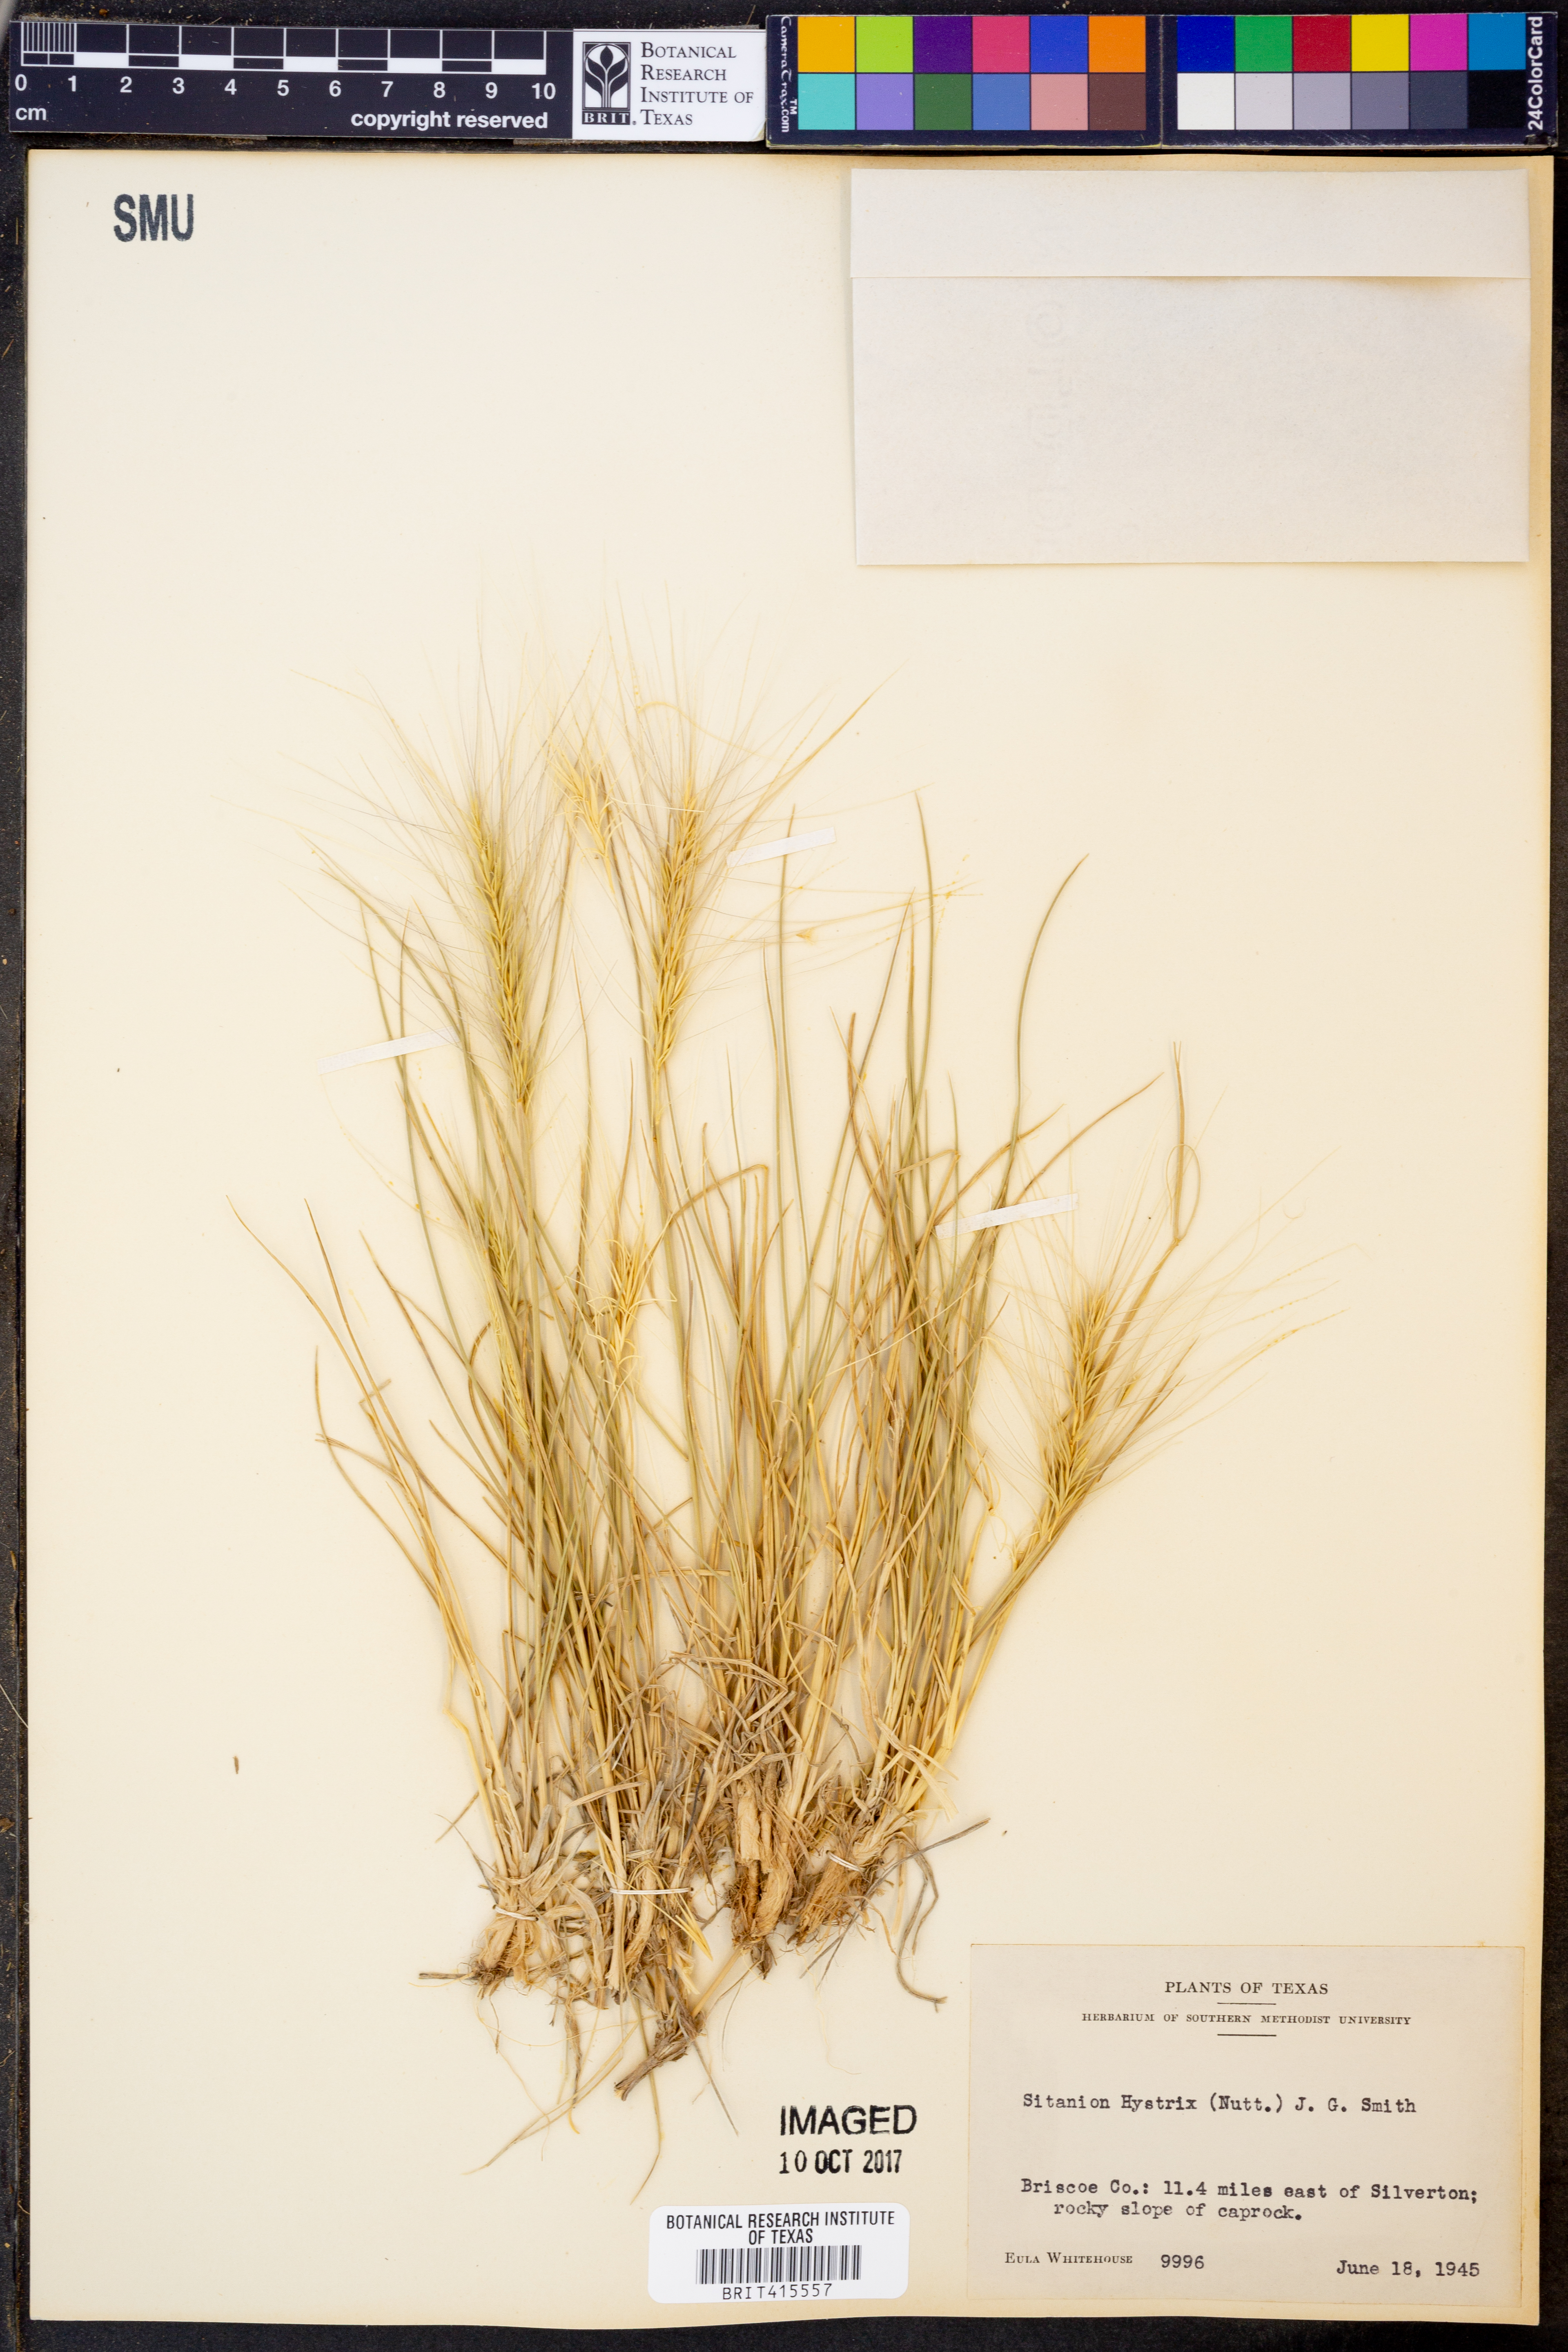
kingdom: Plantae
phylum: Tracheophyta
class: Liliopsida
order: Poales
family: Poaceae
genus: Elymus
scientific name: Elymus elymoides
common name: Bottlebrush squirreltail
